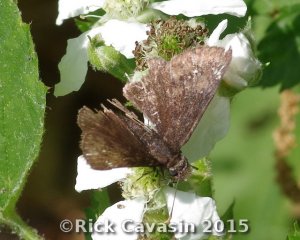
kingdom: Animalia
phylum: Arthropoda
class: Insecta
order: Lepidoptera
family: Hesperiidae
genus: Gesta
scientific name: Gesta
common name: Columbine Duskywing
